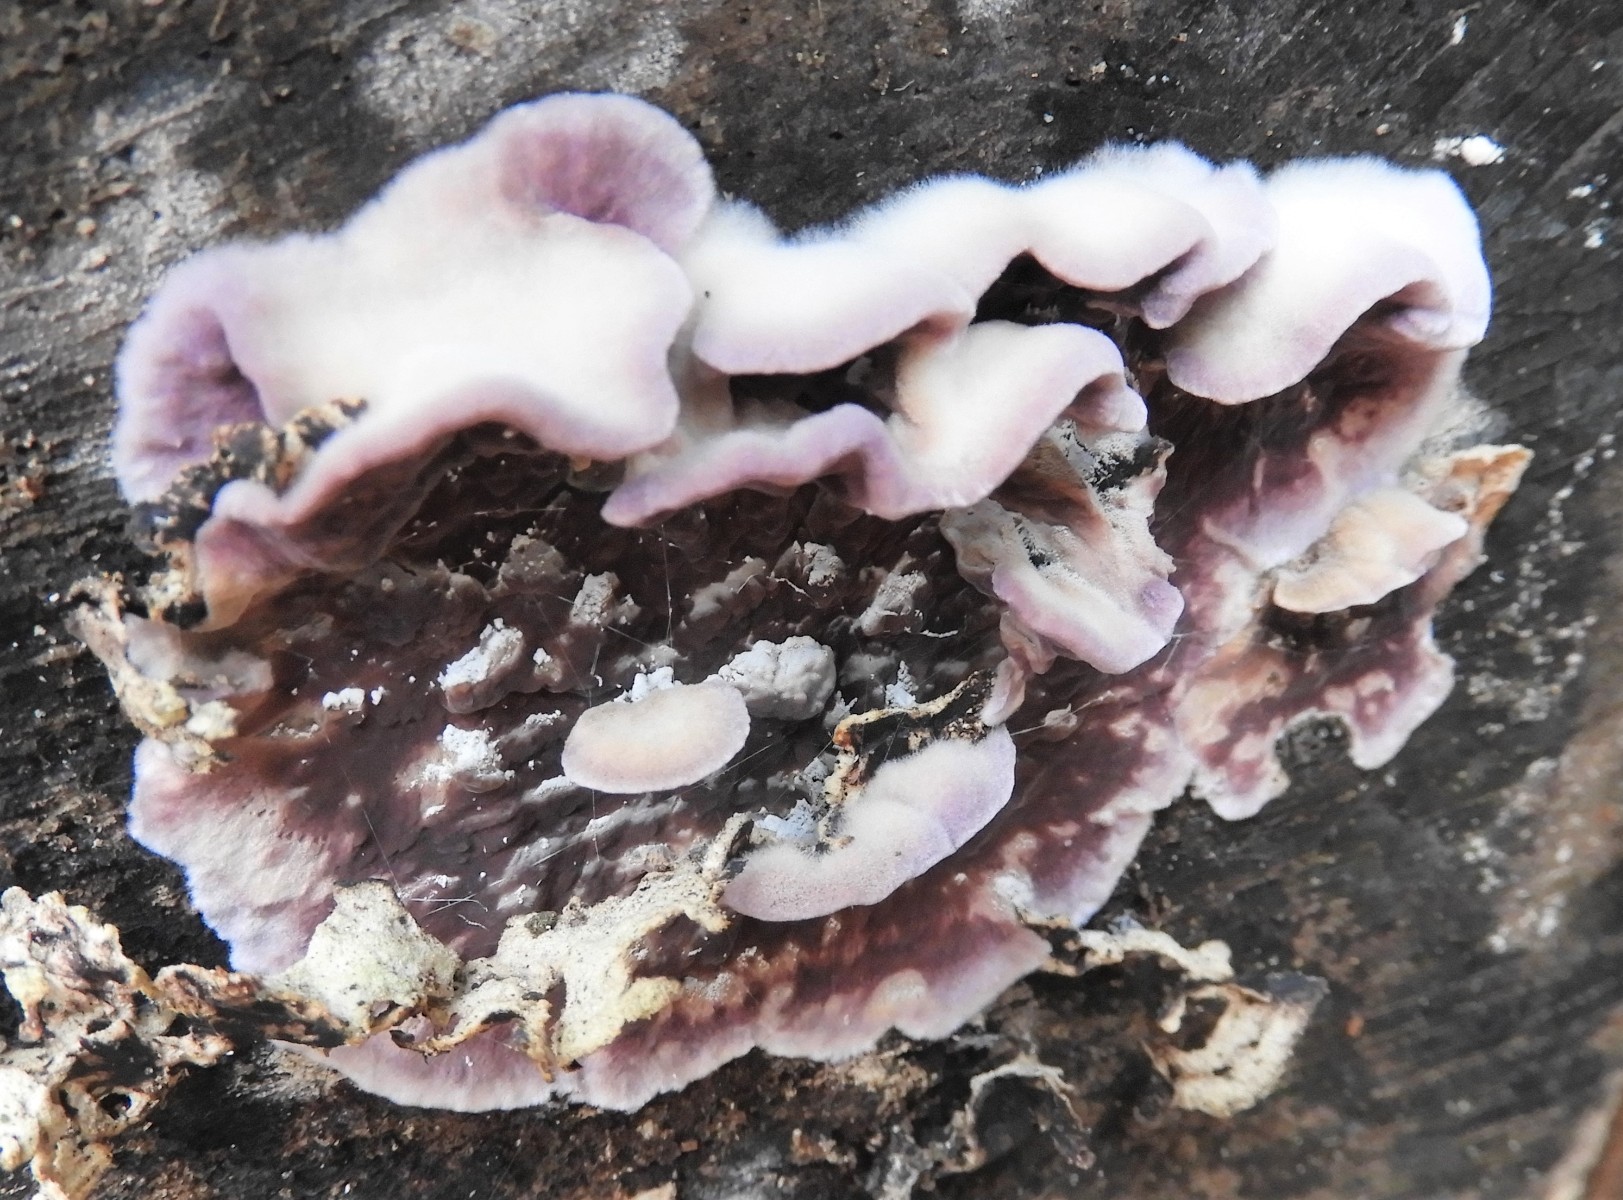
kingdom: Fungi
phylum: Basidiomycota
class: Agaricomycetes
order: Agaricales
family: Cyphellaceae
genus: Chondrostereum
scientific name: Chondrostereum purpureum
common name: purpurlædersvamp
